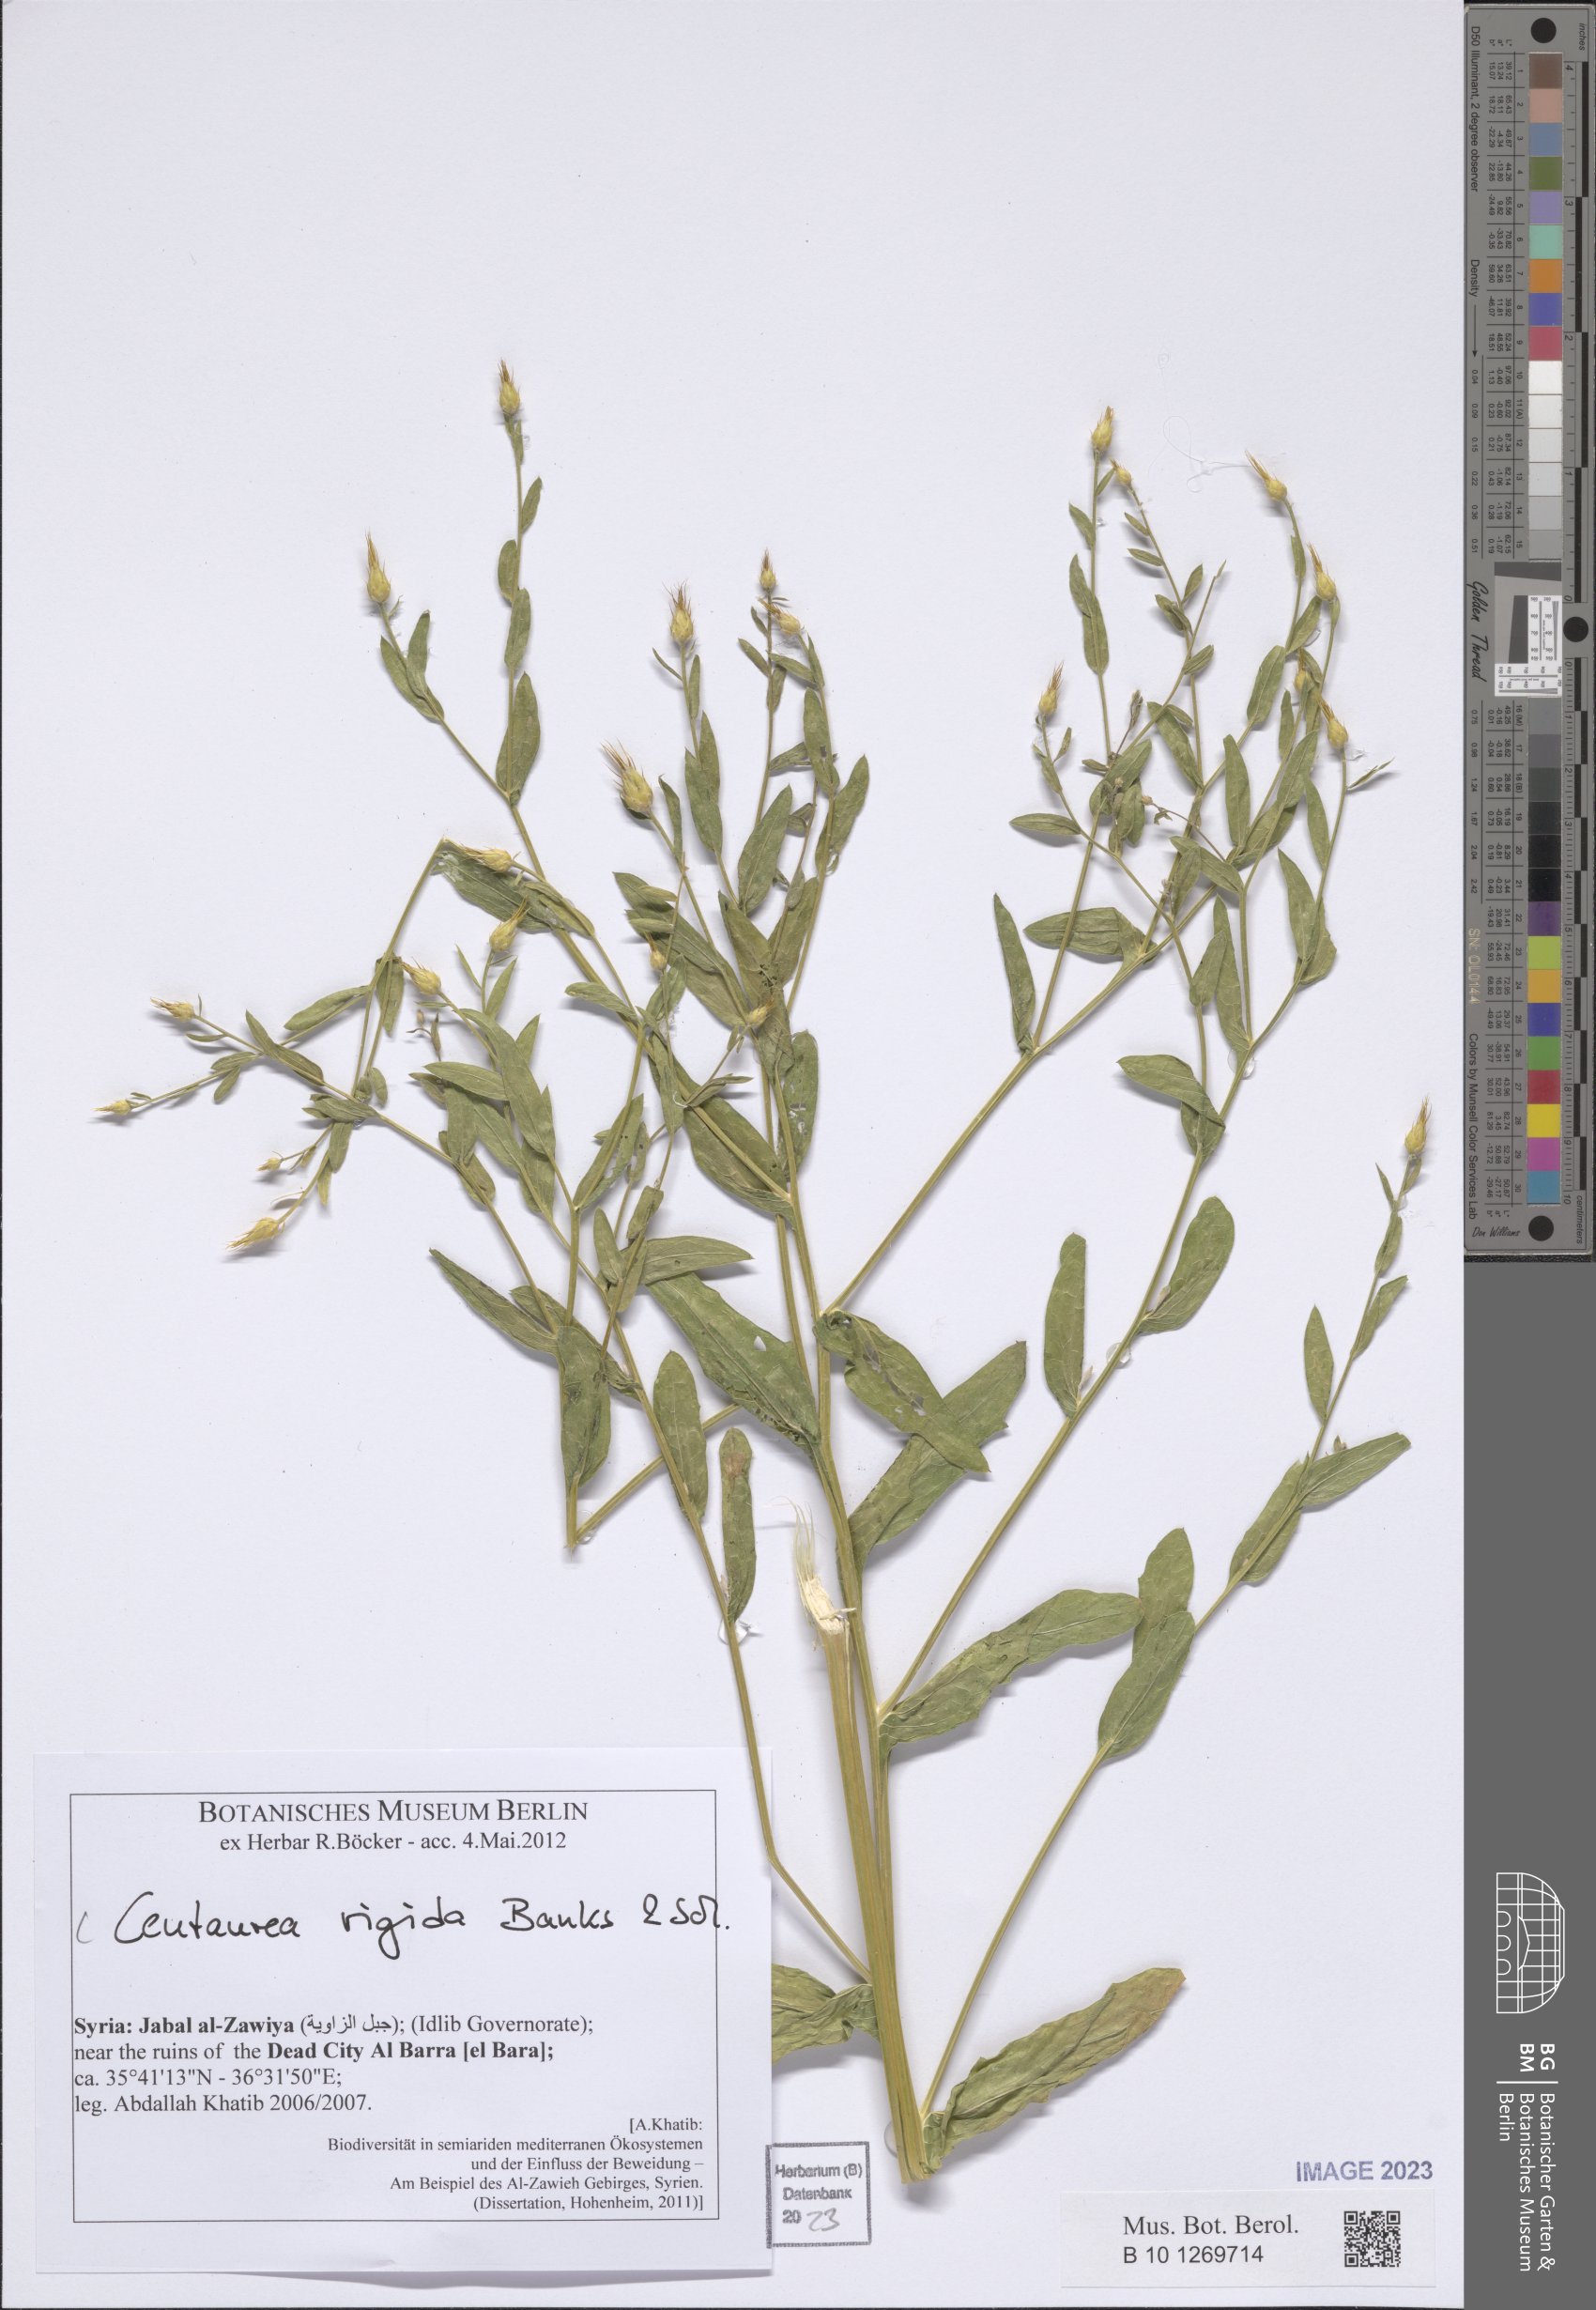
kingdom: Plantae
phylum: Tracheophyta
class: Magnoliopsida
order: Asterales
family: Asteraceae
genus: Centaurea
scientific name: Centaurea rigida
